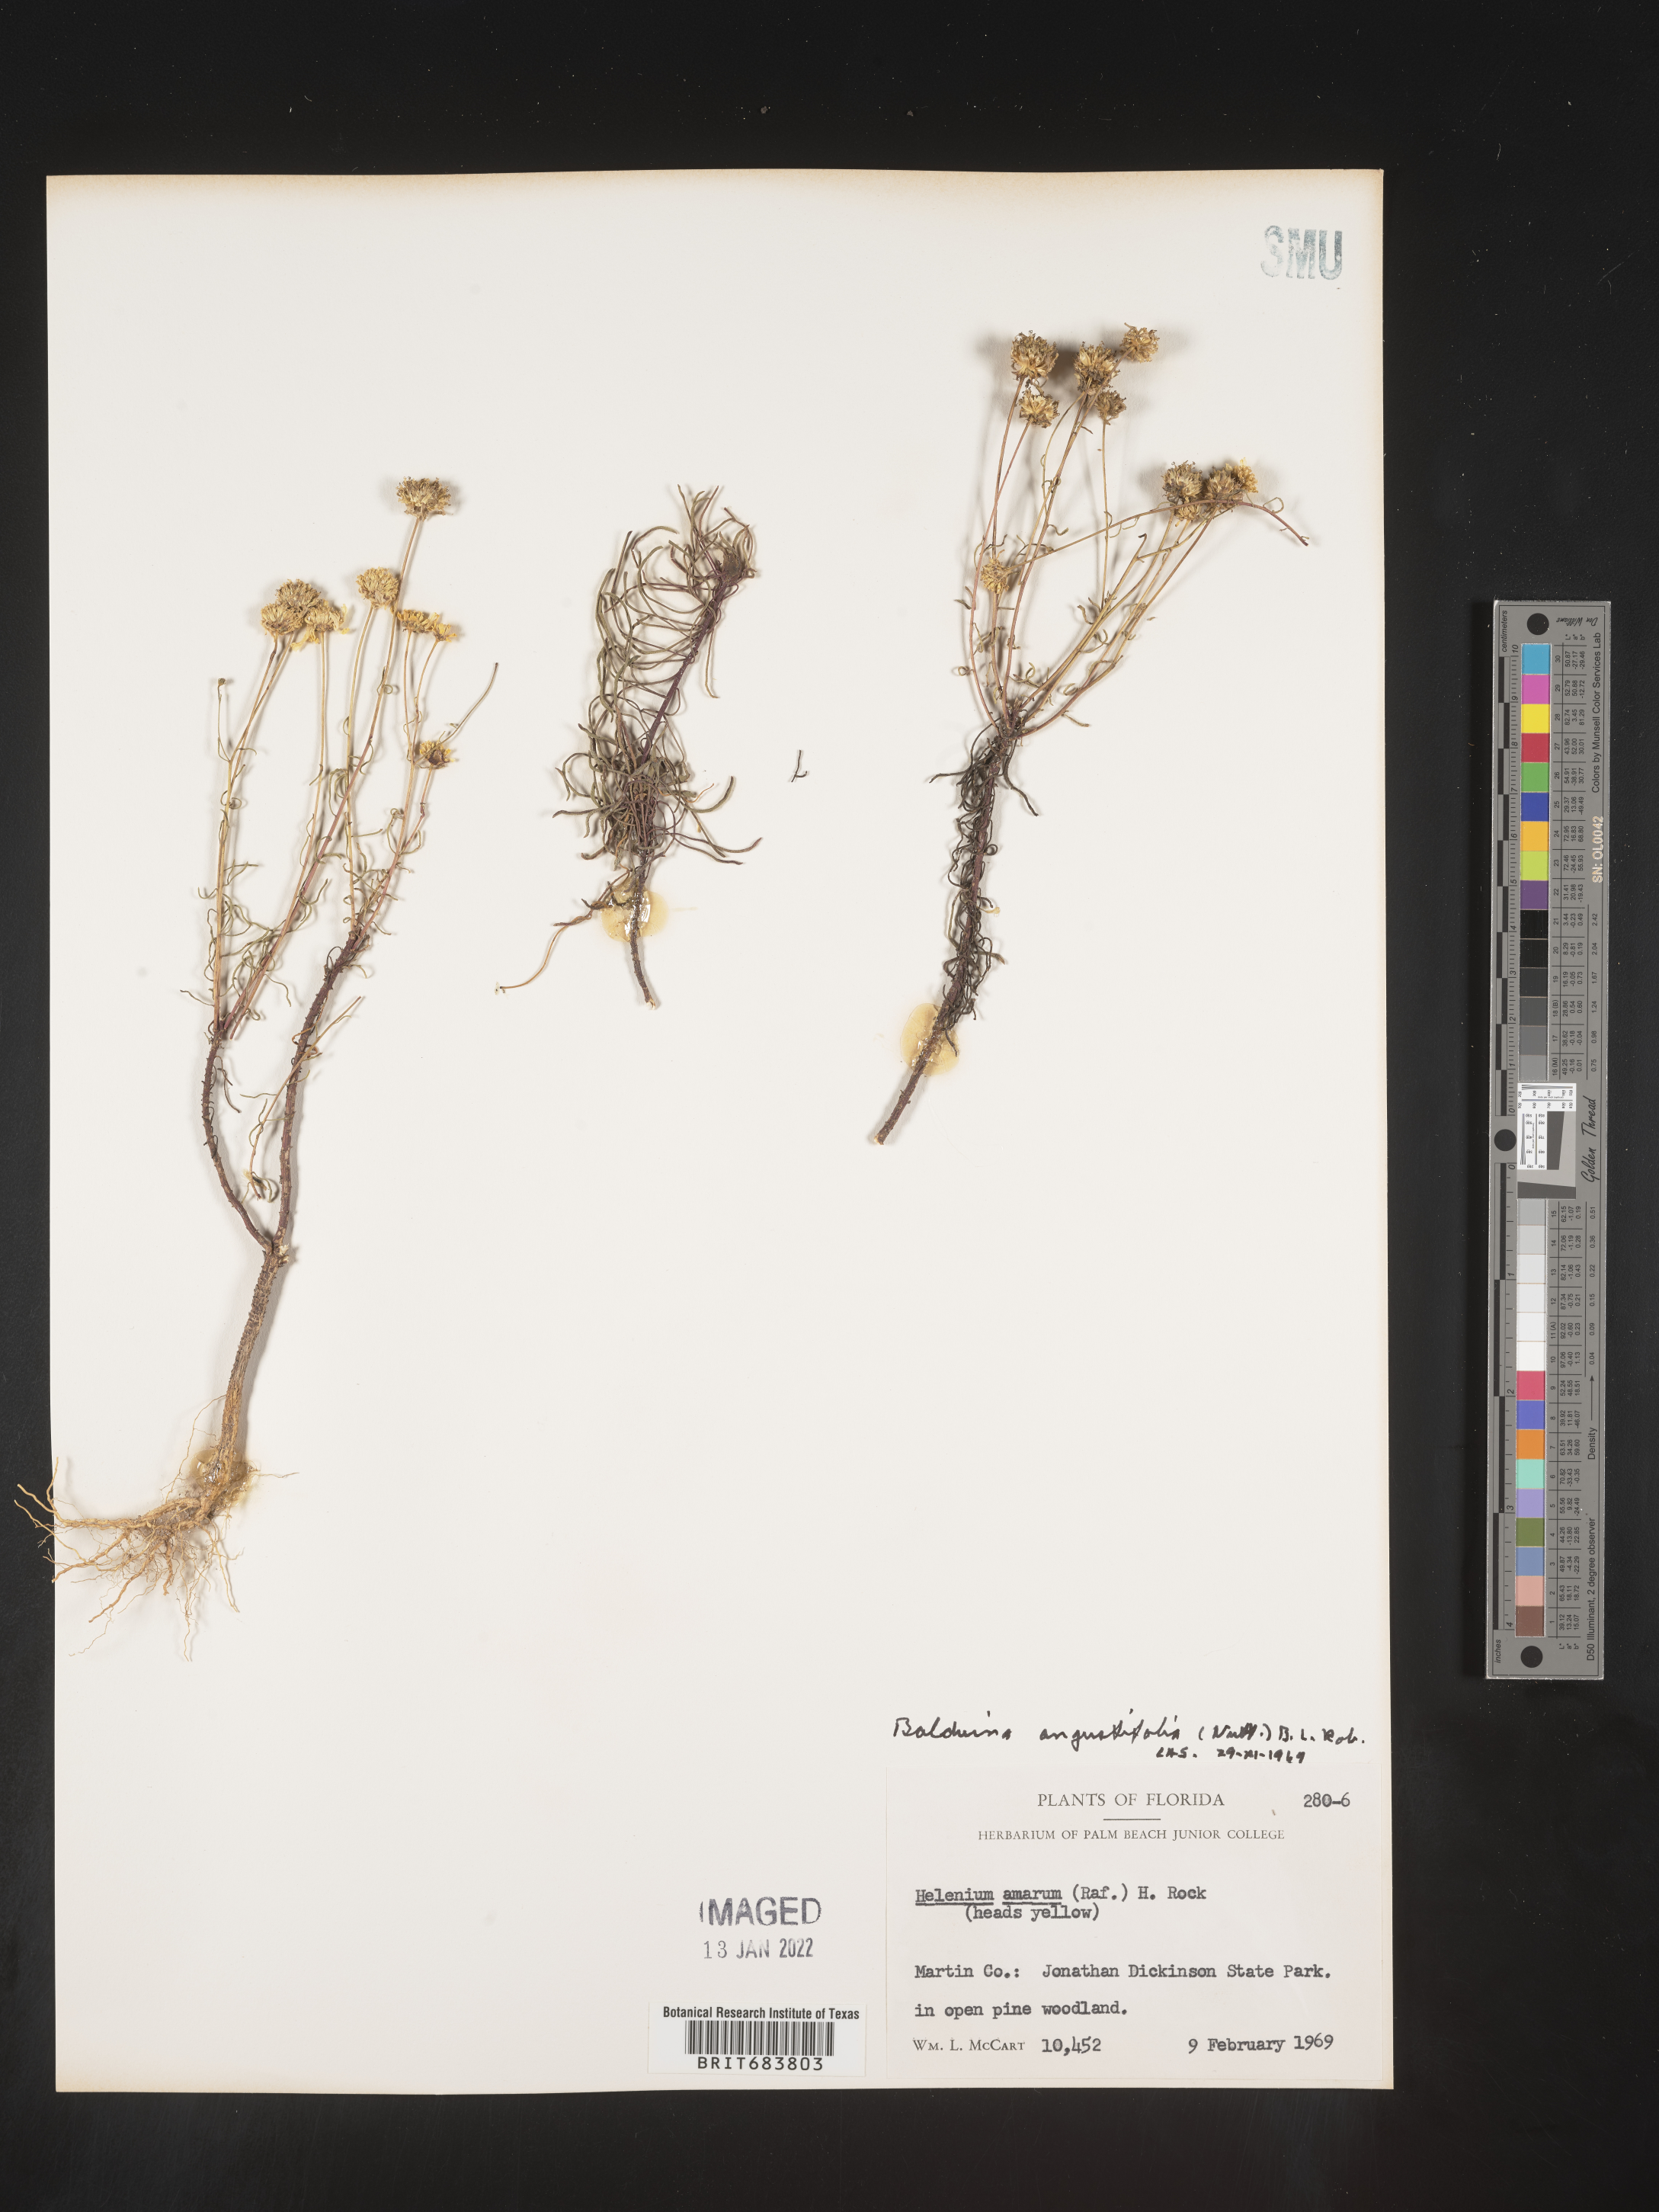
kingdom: Plantae
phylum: Tracheophyta
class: Magnoliopsida
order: Asterales
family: Asteraceae
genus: Balduina
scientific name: Balduina angustifolia
